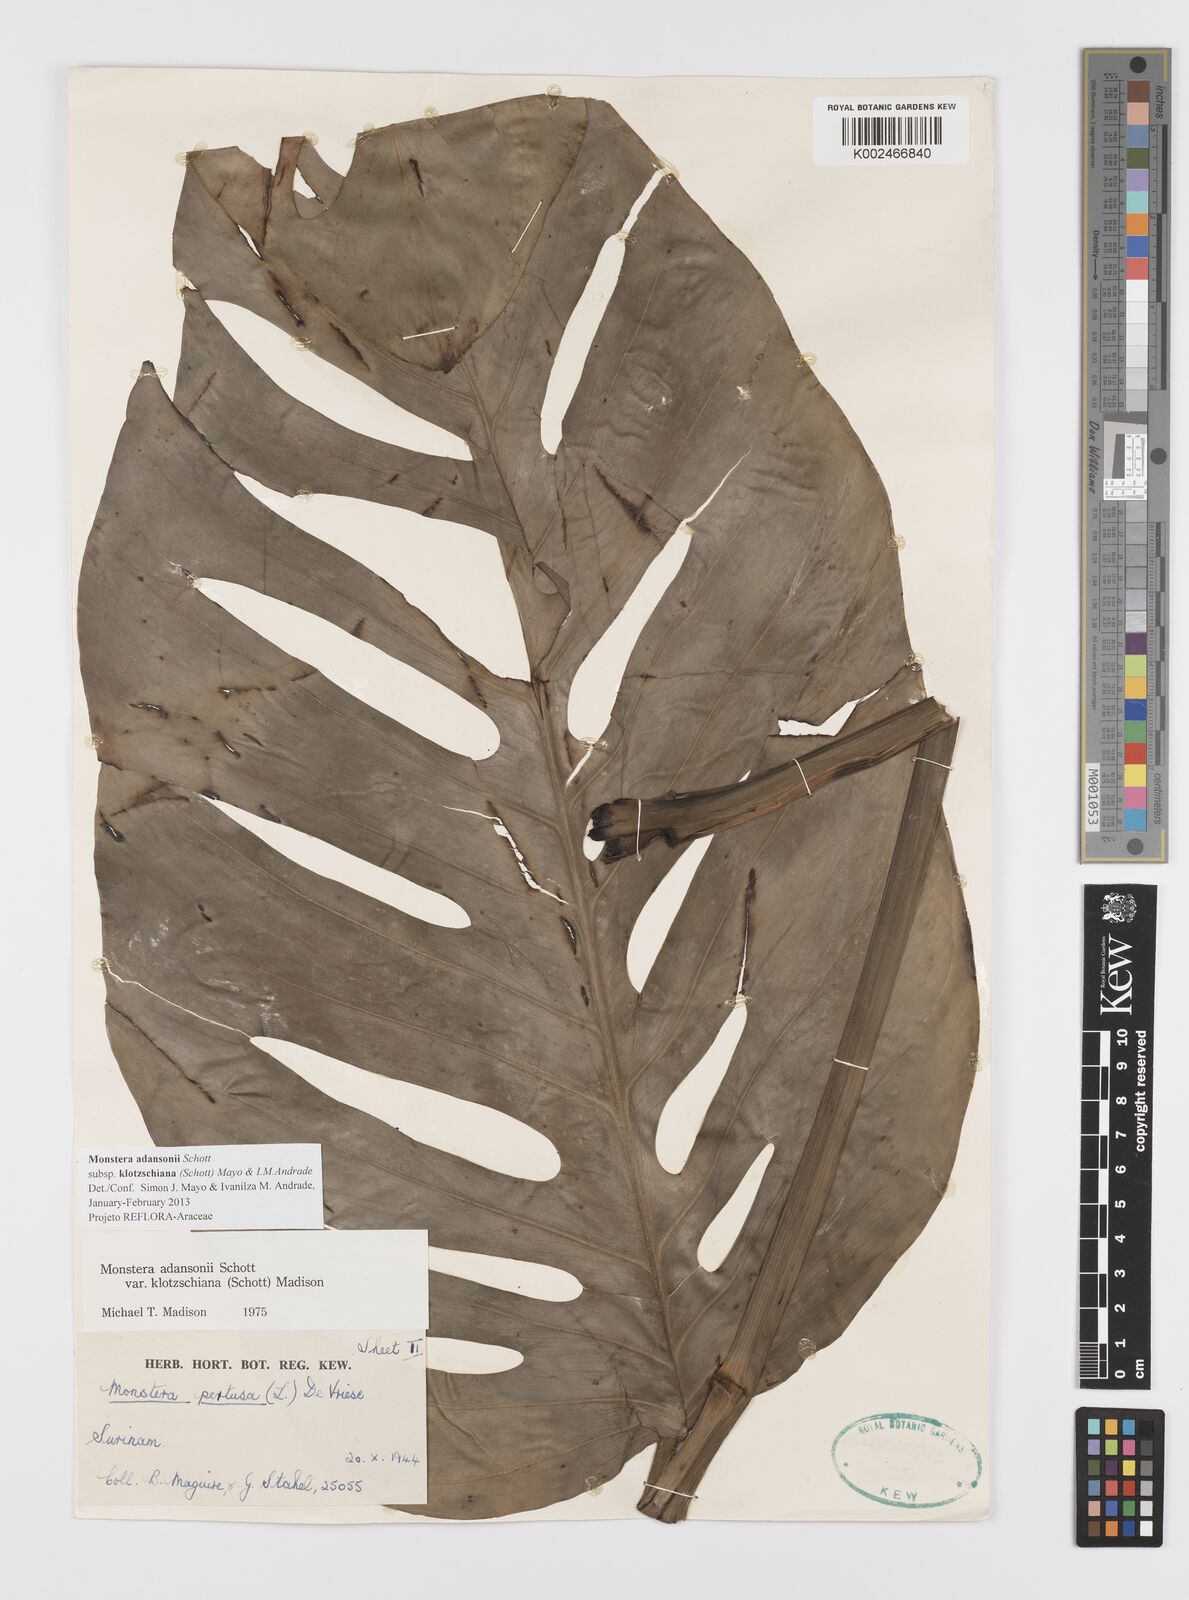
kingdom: Plantae
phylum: Tracheophyta
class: Liliopsida
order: Alismatales
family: Araceae
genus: Monstera
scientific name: Monstera adansonii
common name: Tarovine
